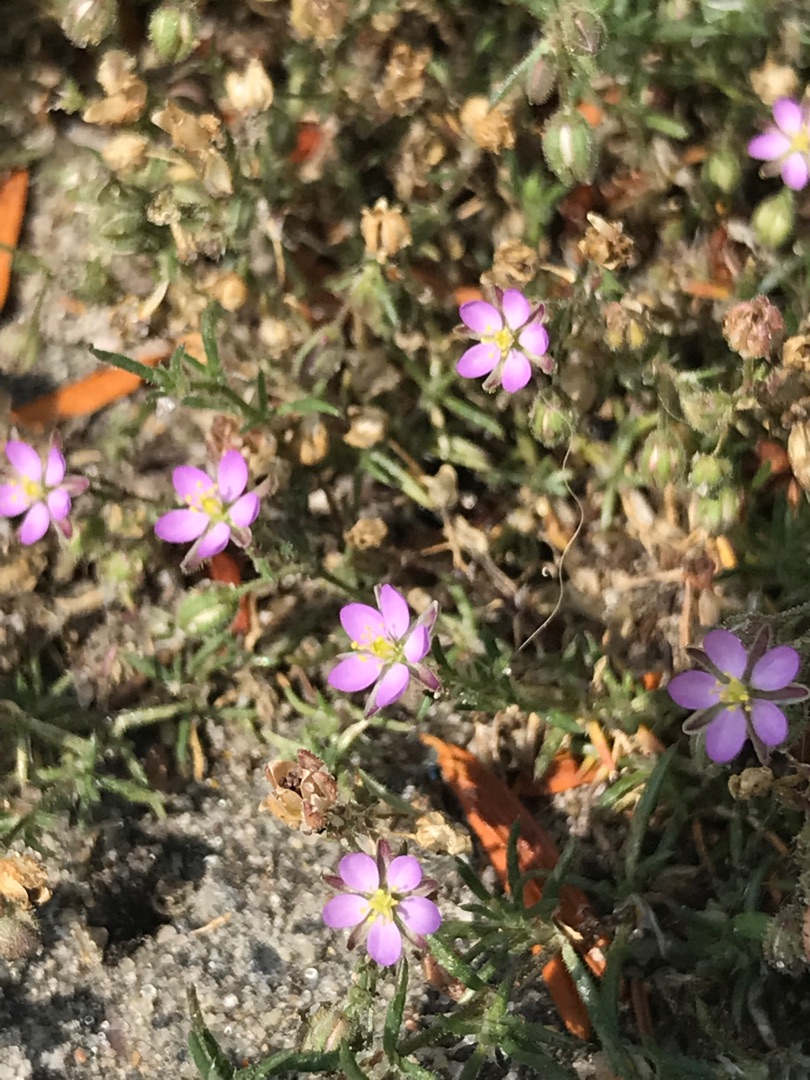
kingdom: Plantae
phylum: Tracheophyta
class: Magnoliopsida
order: Caryophyllales
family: Caryophyllaceae
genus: Spergularia
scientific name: Spergularia marina
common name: Kødet hindeknæ
